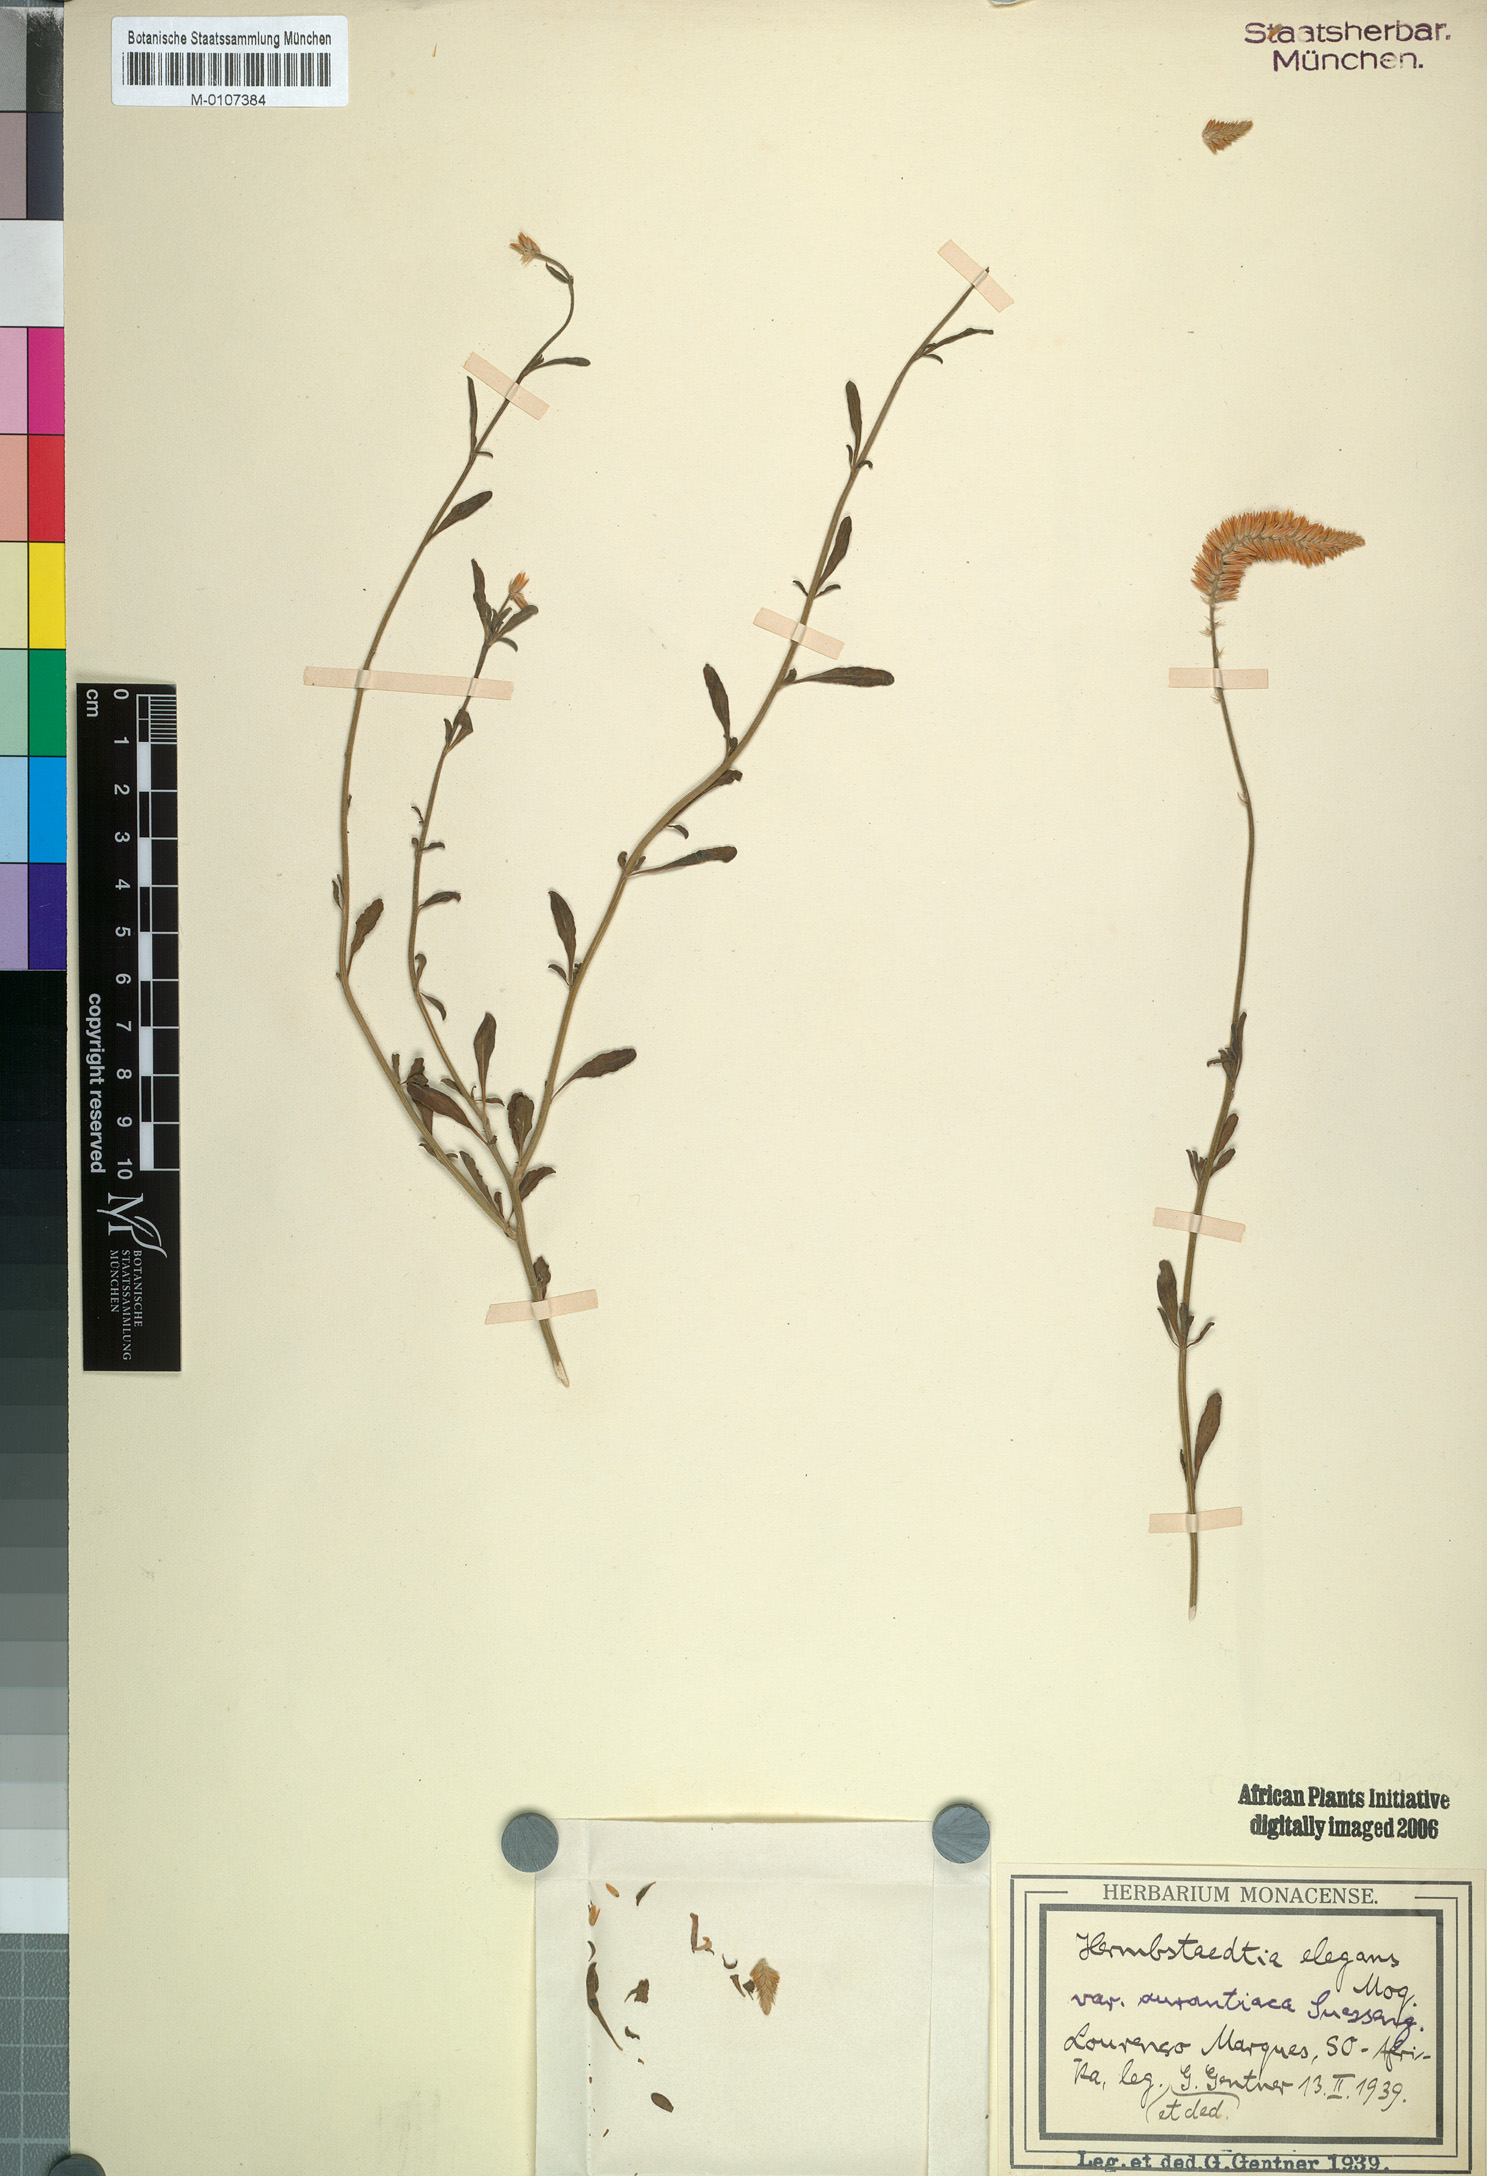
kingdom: Plantae
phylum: Tracheophyta
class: Magnoliopsida
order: Caryophyllales
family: Amaranthaceae
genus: Hermbstaedtia
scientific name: Hermbstaedtia odorata
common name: Guineaflower
